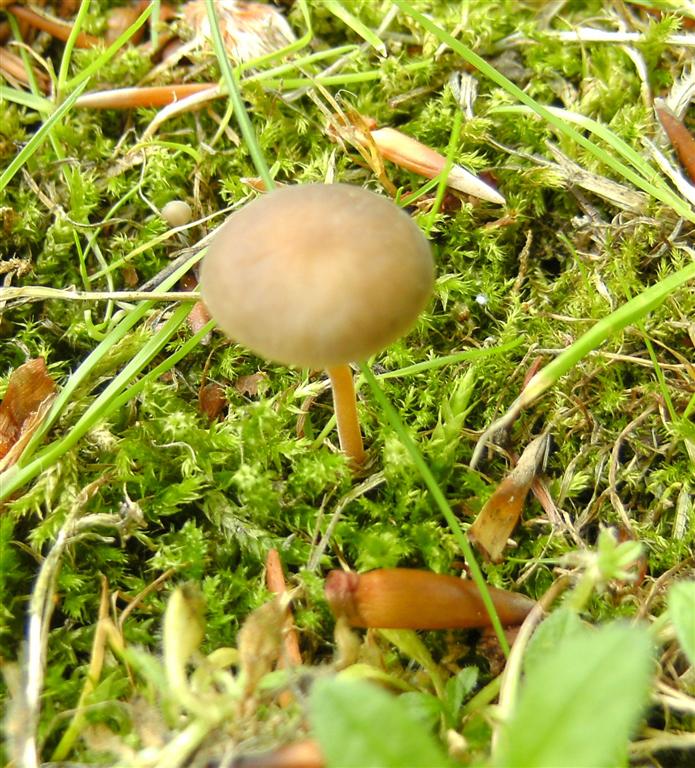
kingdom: Fungi
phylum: Basidiomycota
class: Agaricomycetes
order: Agaricales
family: Physalacriaceae
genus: Strobilurus
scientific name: Strobilurus tenacellus
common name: sommer-koglehat
